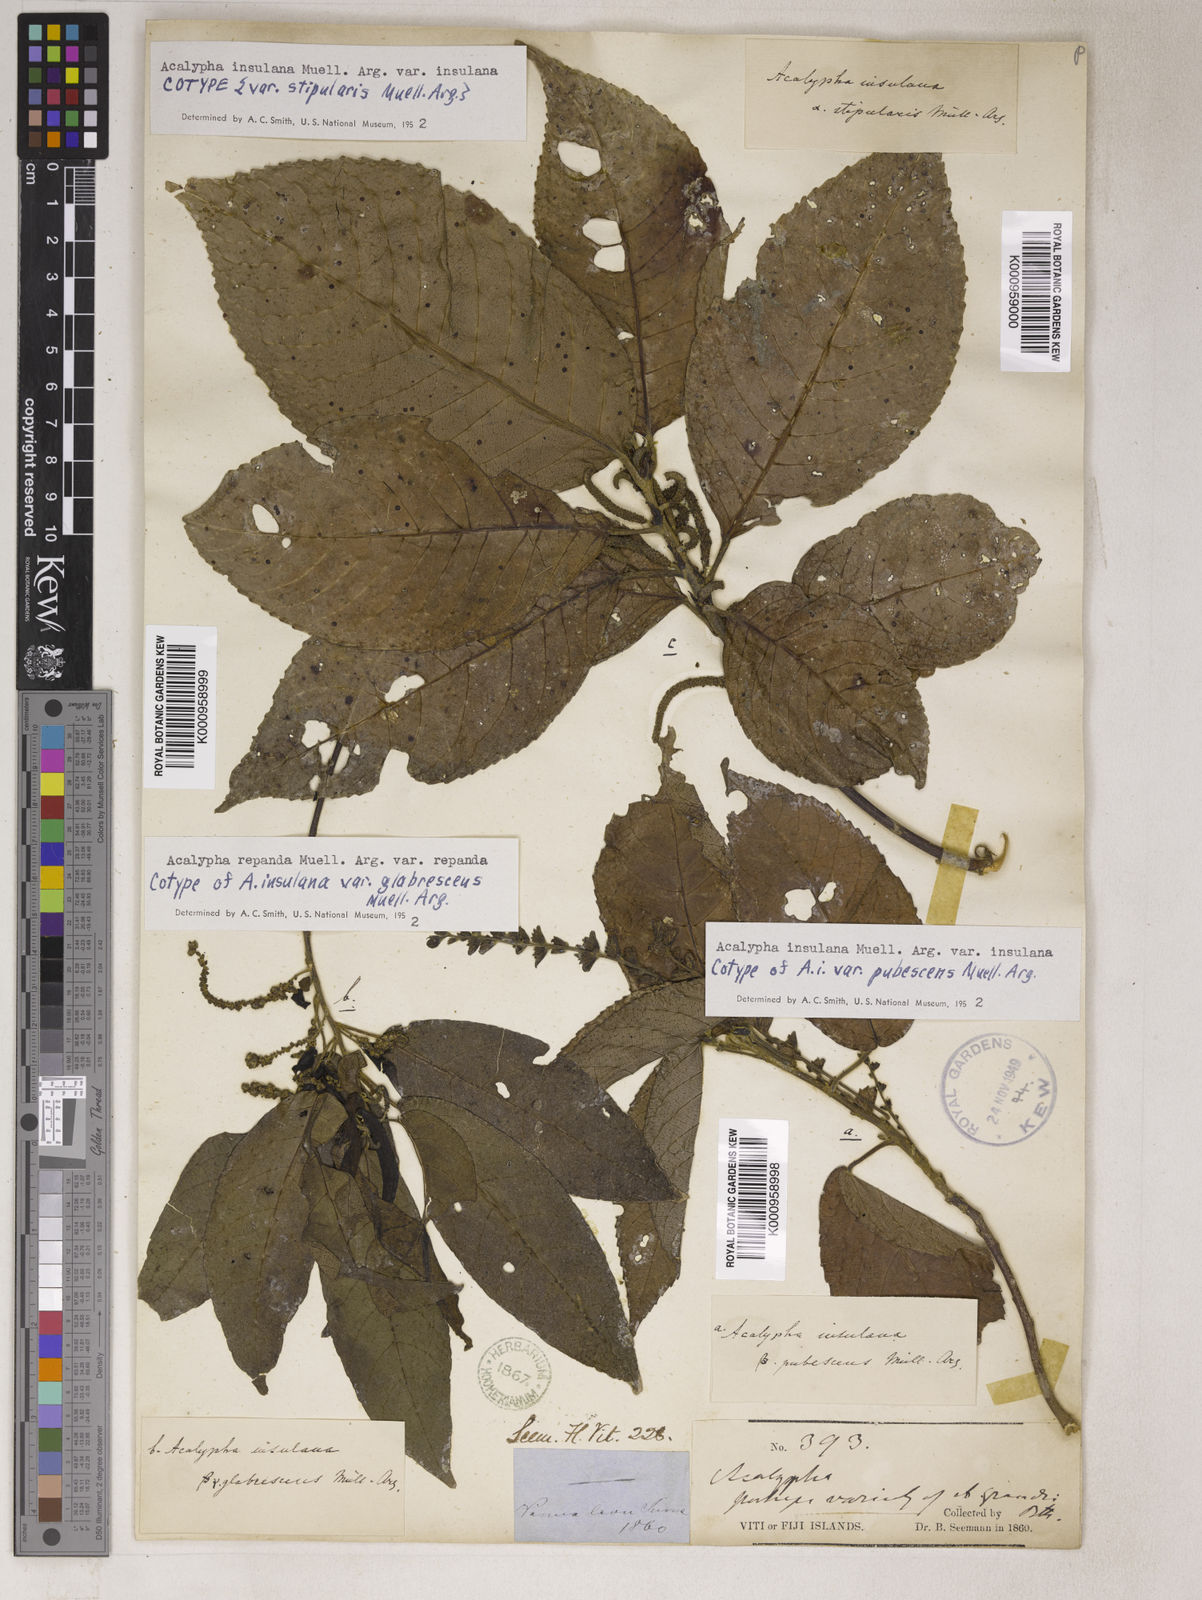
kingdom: Plantae
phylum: Tracheophyta
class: Magnoliopsida
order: Malpighiales
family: Euphorbiaceae
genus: Acalypha
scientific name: Acalypha
